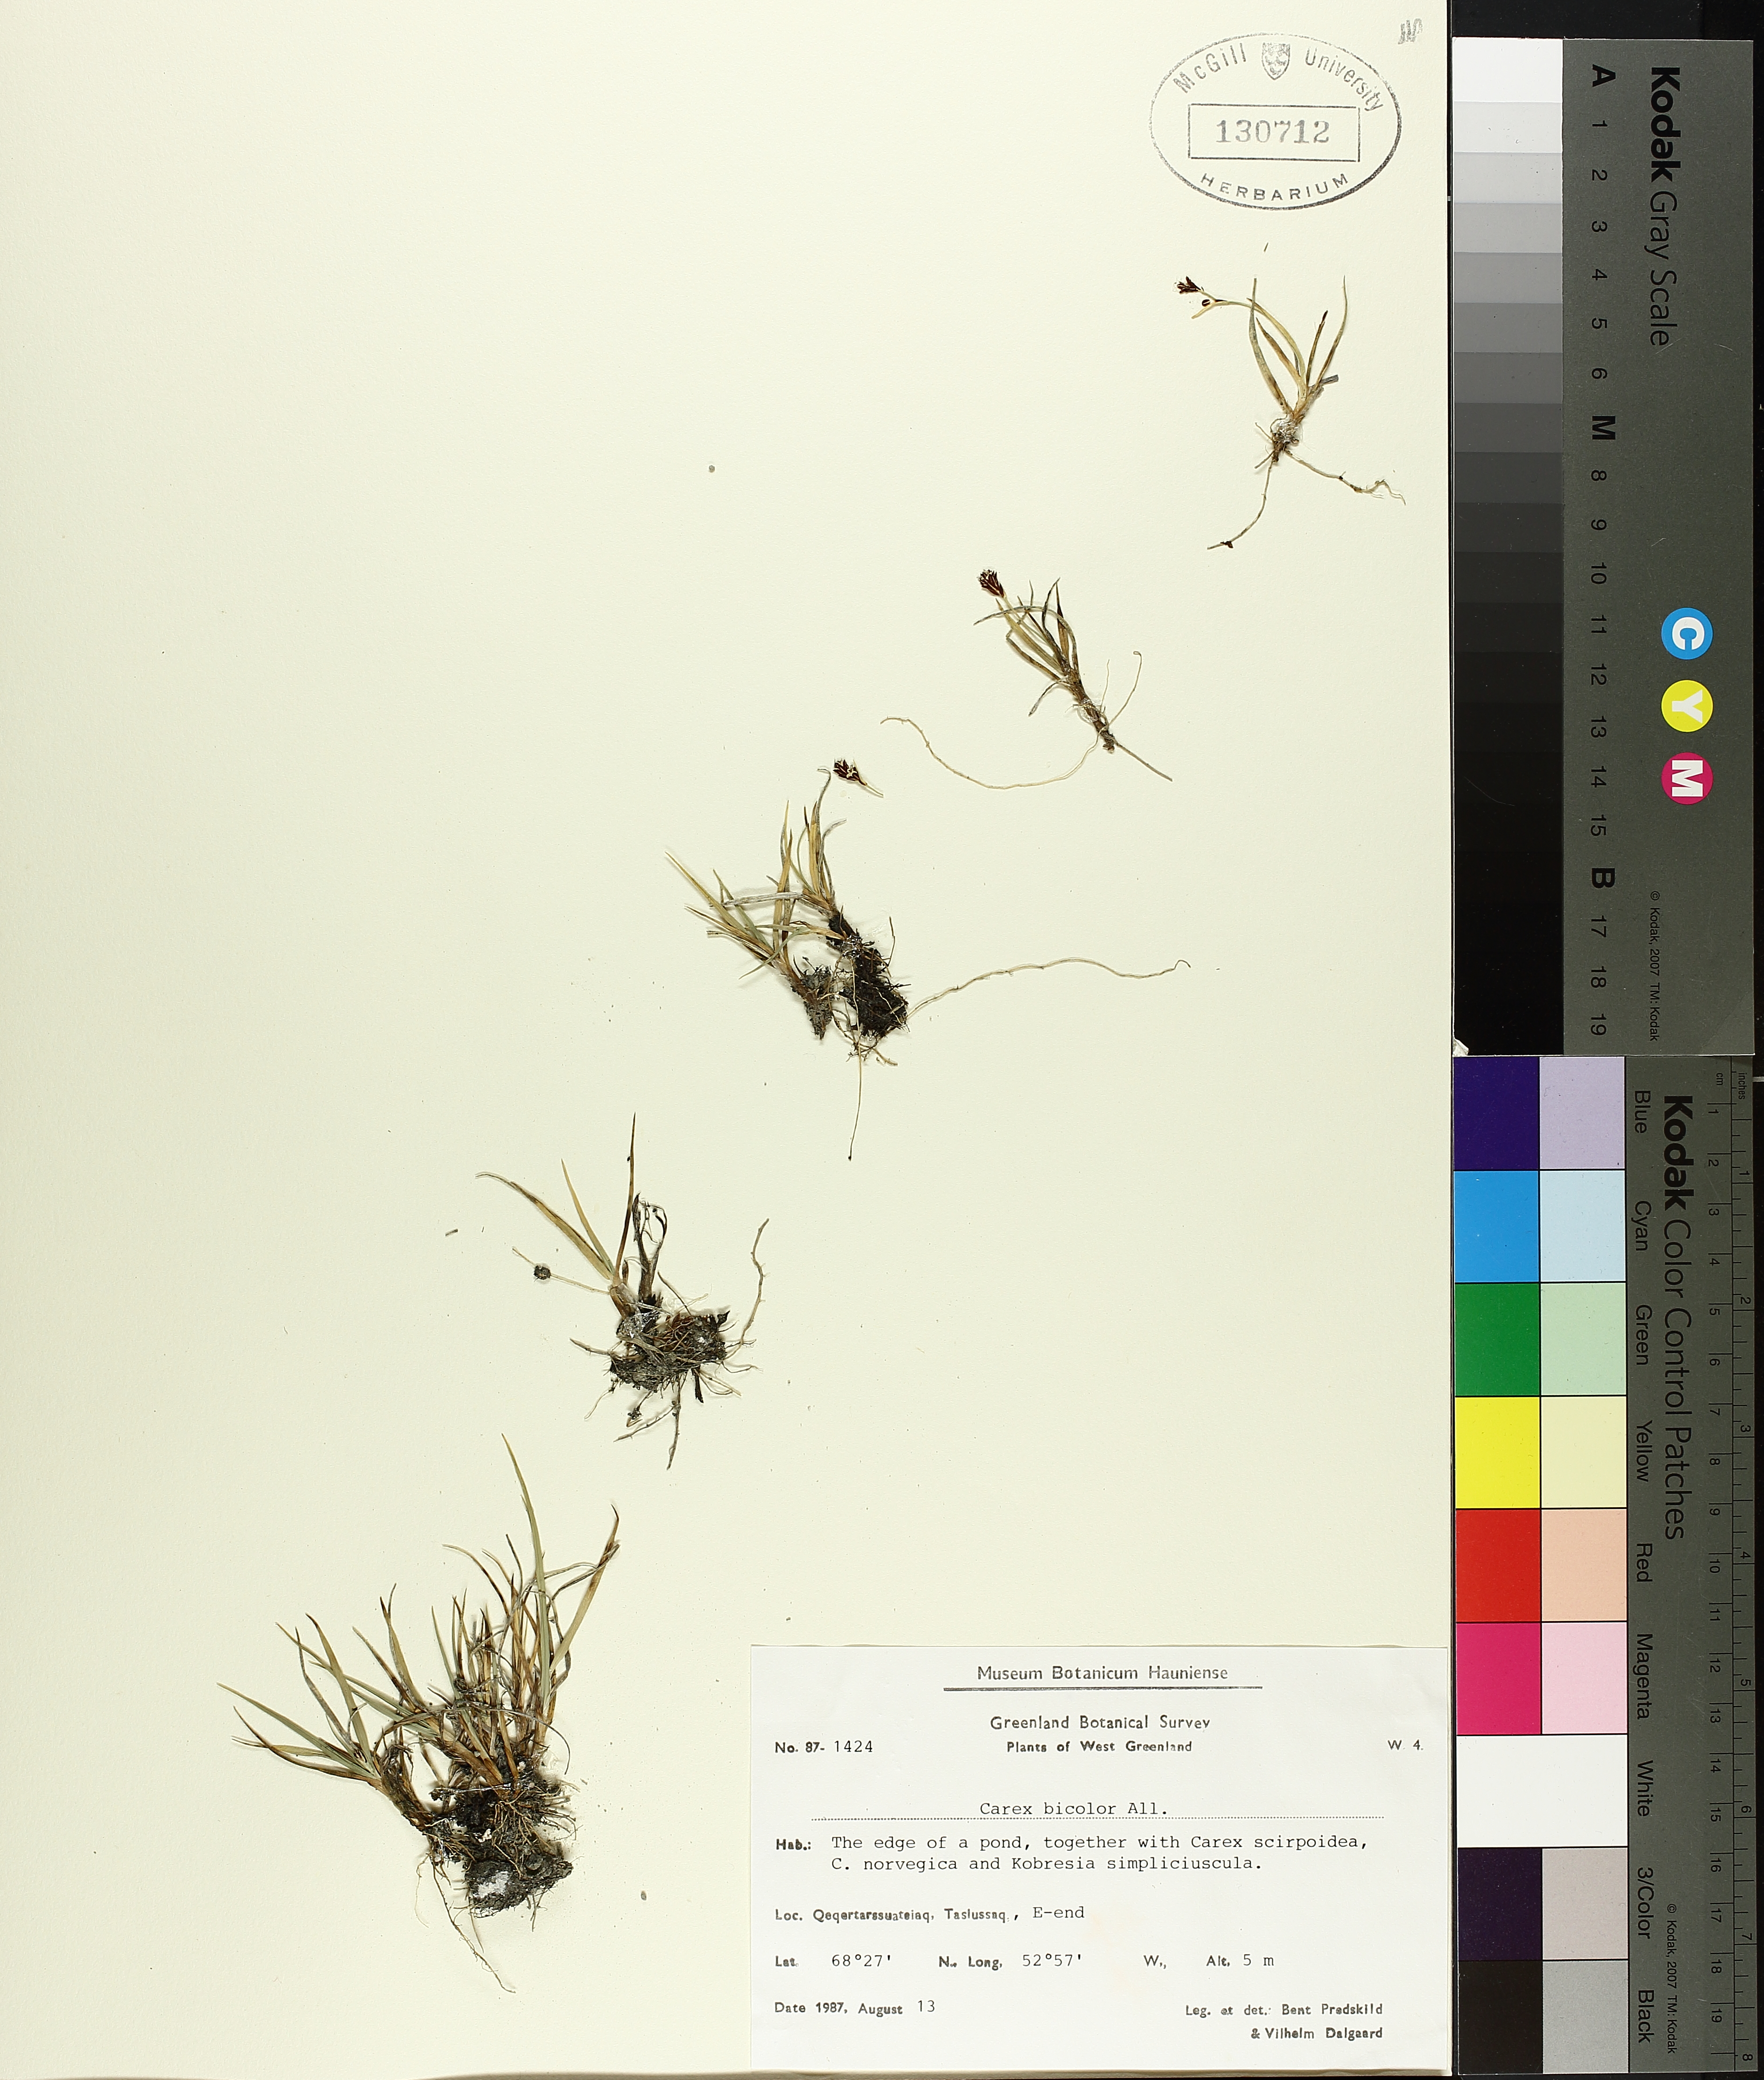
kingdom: Plantae
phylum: Tracheophyta
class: Liliopsida
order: Poales
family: Cyperaceae
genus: Carex
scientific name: Carex bicolor
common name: Bicoloured sedge
